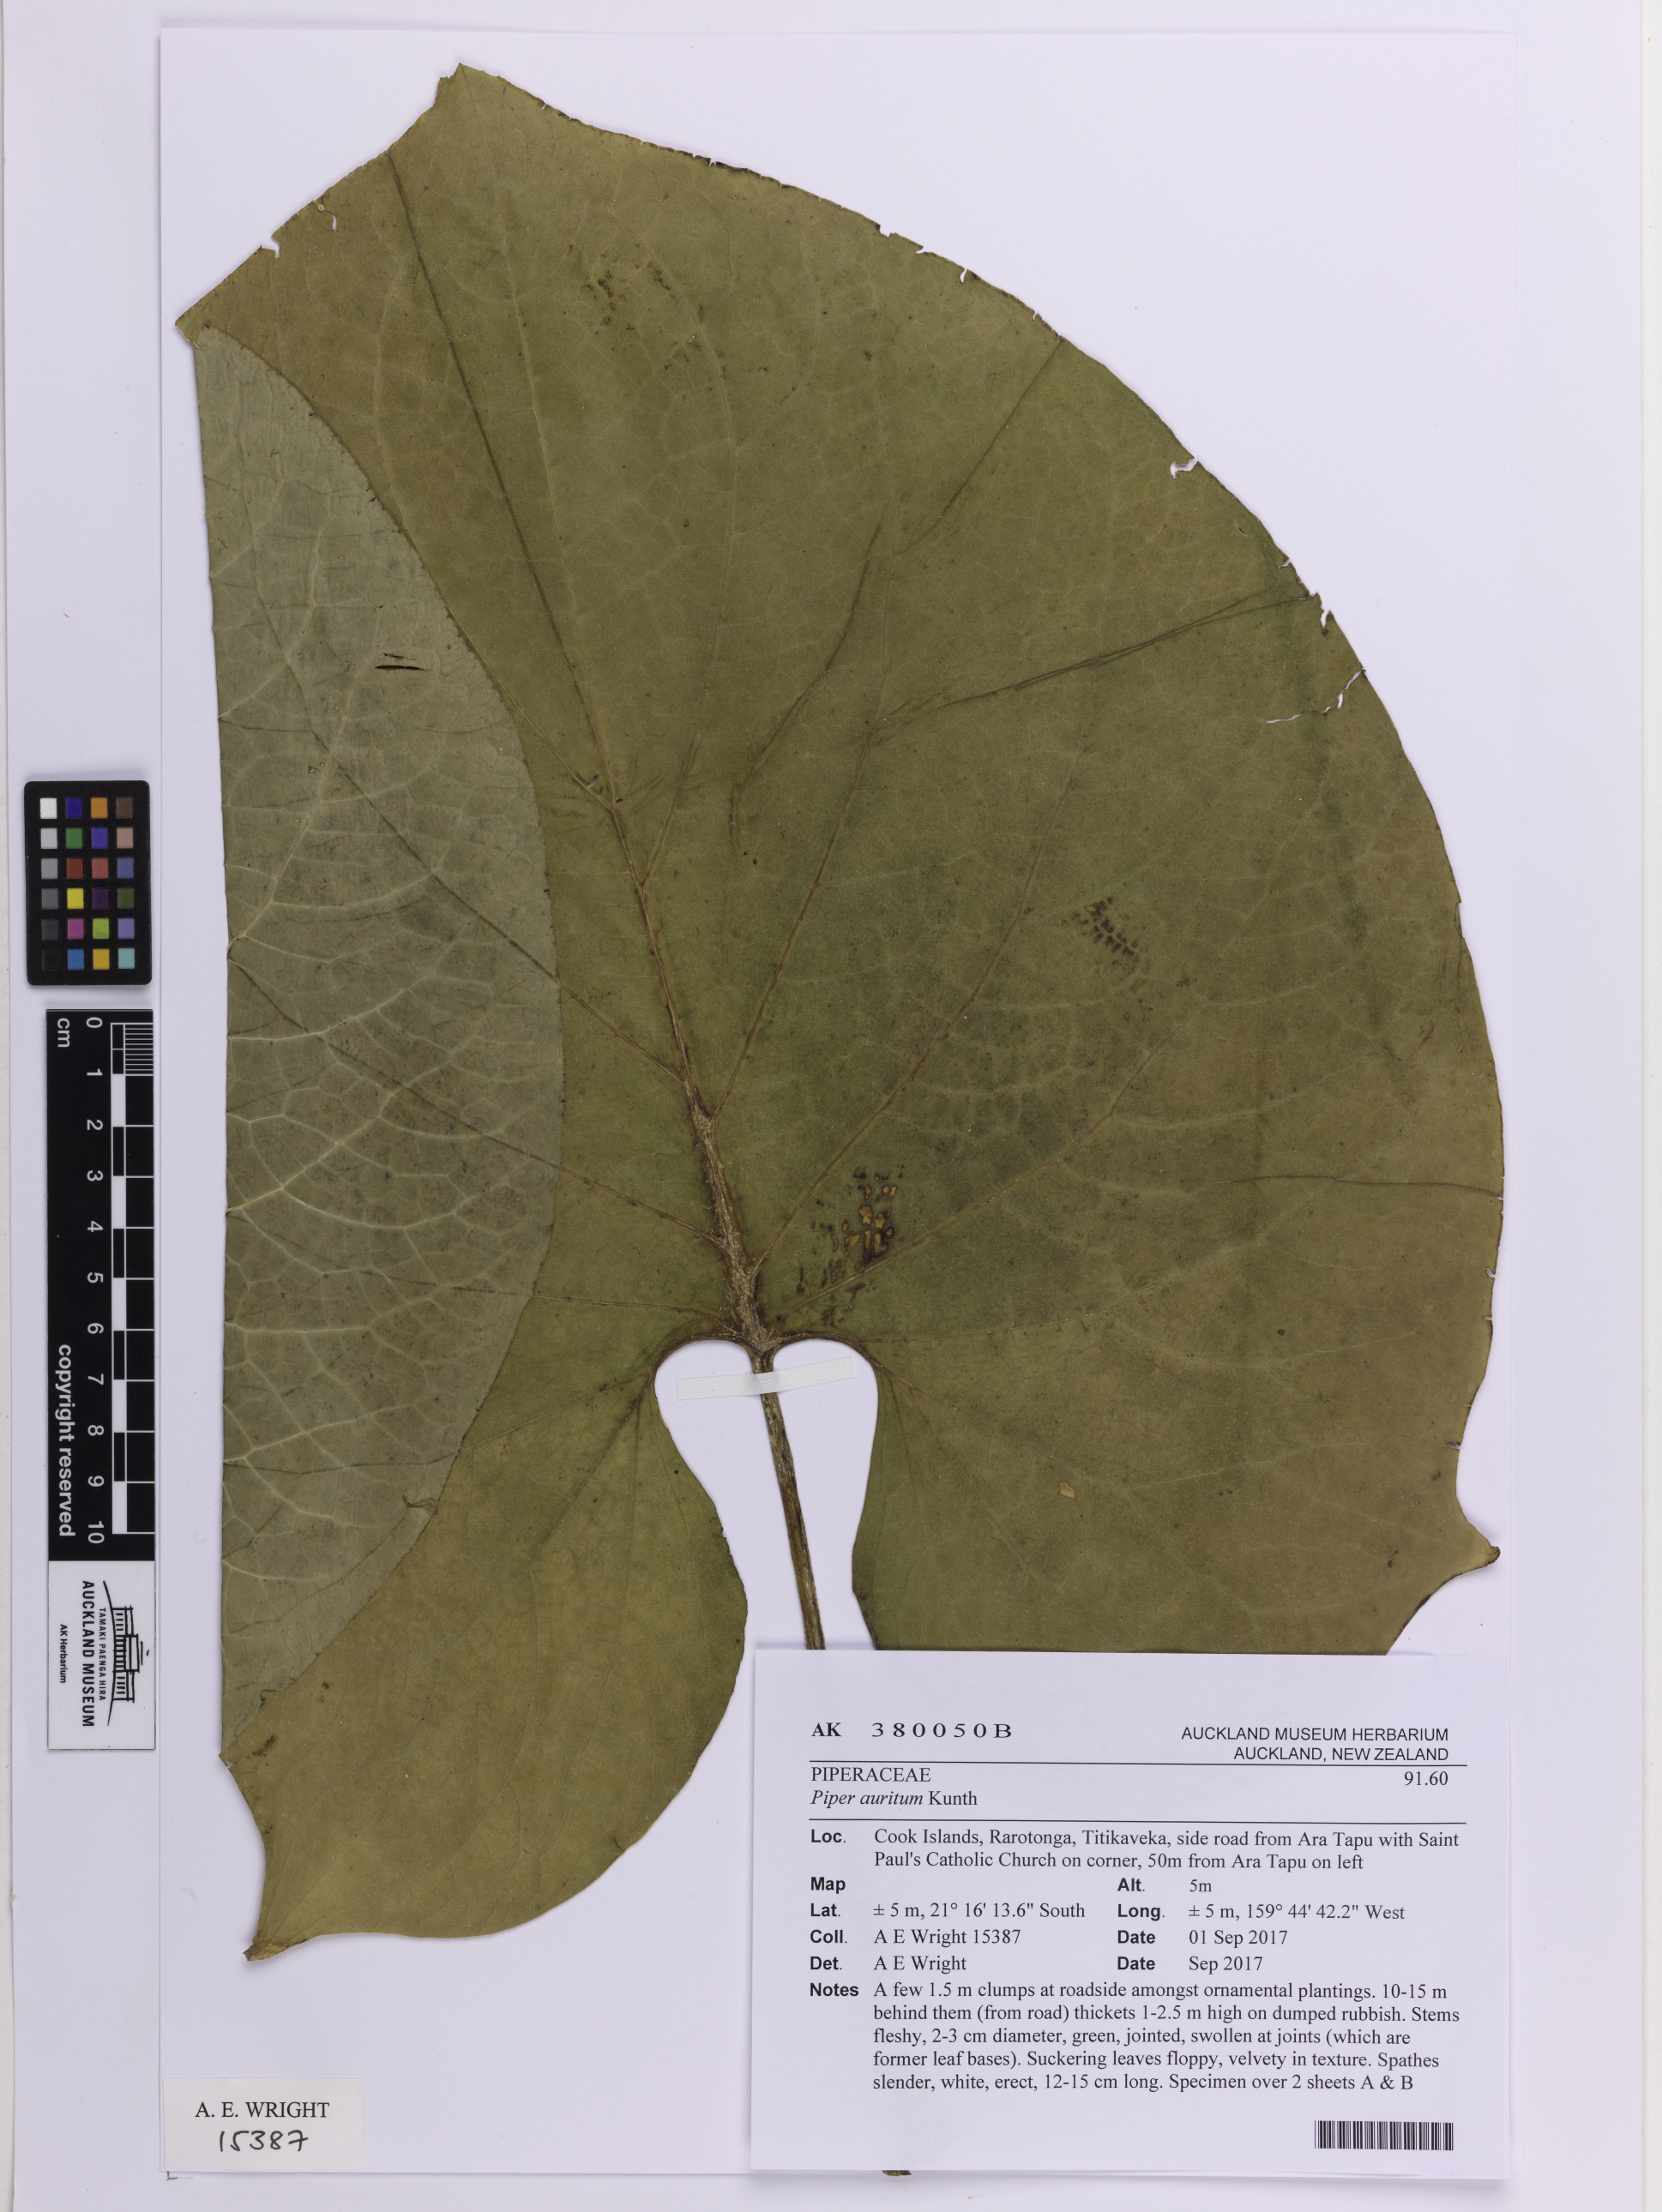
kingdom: Plantae
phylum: Tracheophyta
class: Magnoliopsida
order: Piperales
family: Piperaceae
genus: Piper
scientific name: Piper auritum
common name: Vera cruz pepper
